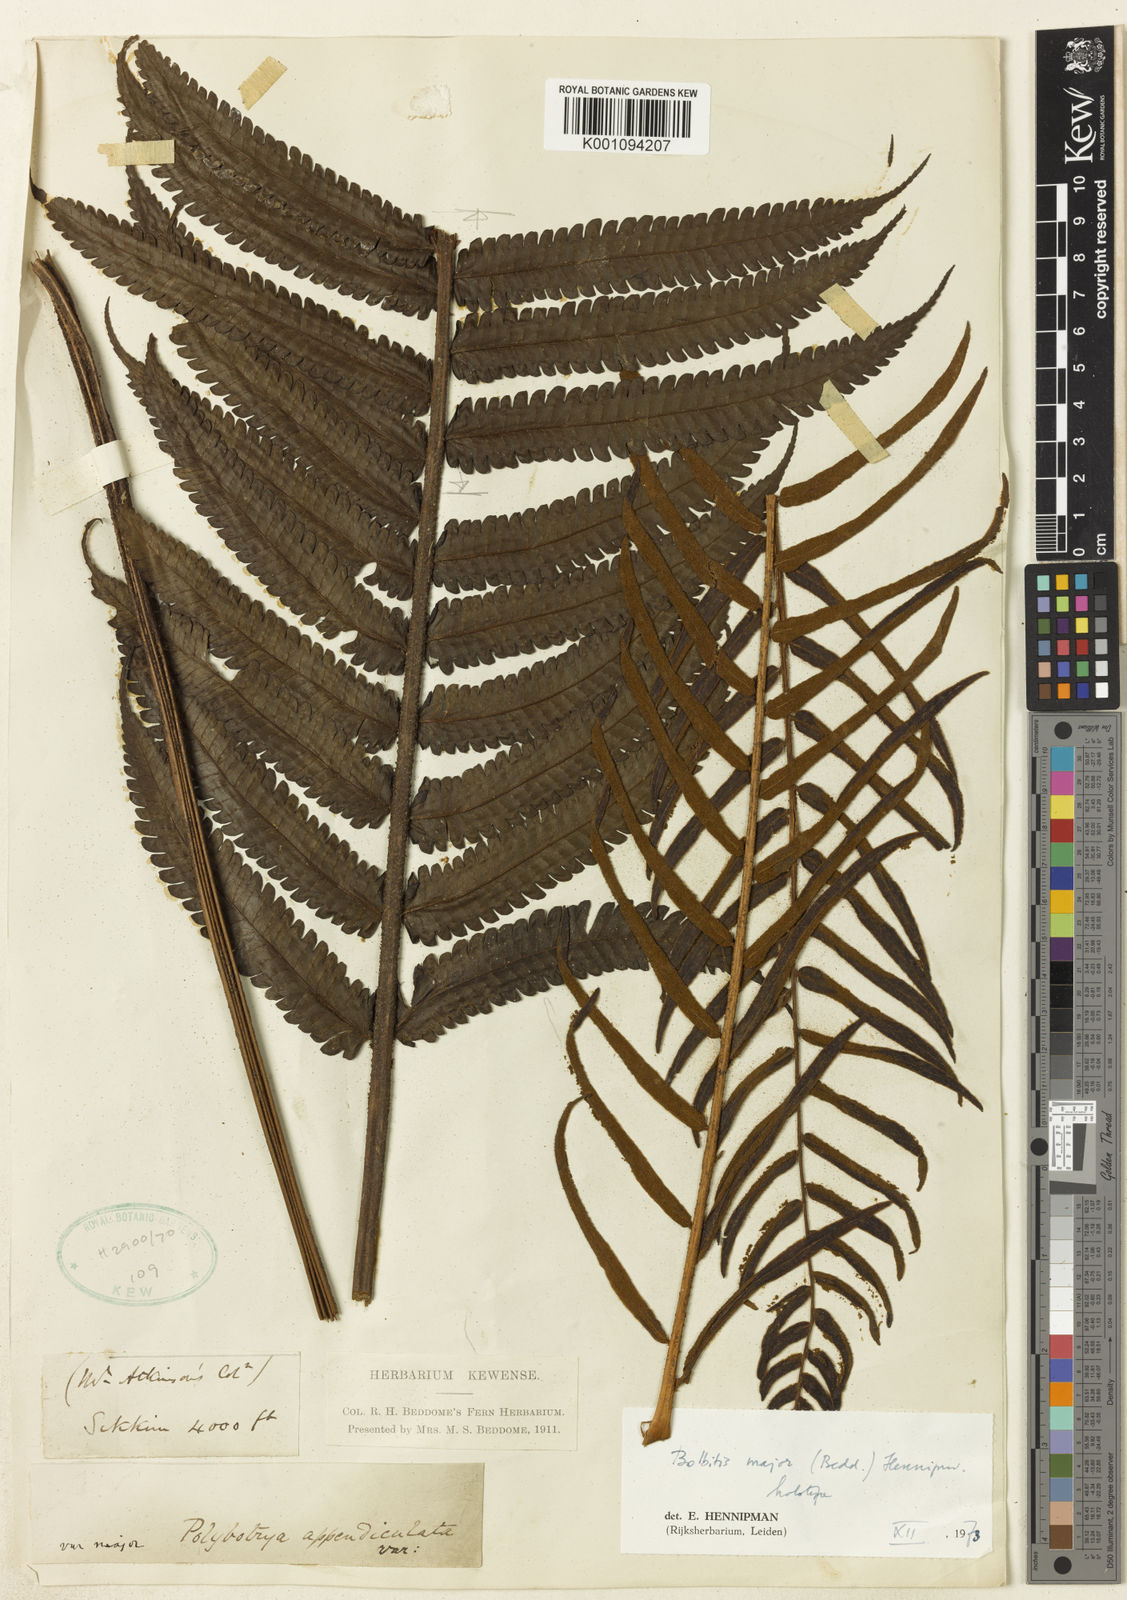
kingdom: Plantae
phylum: Tracheophyta
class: Polypodiopsida
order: Polypodiales
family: Dryopteridaceae
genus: Bolbitis
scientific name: Bolbitis major
